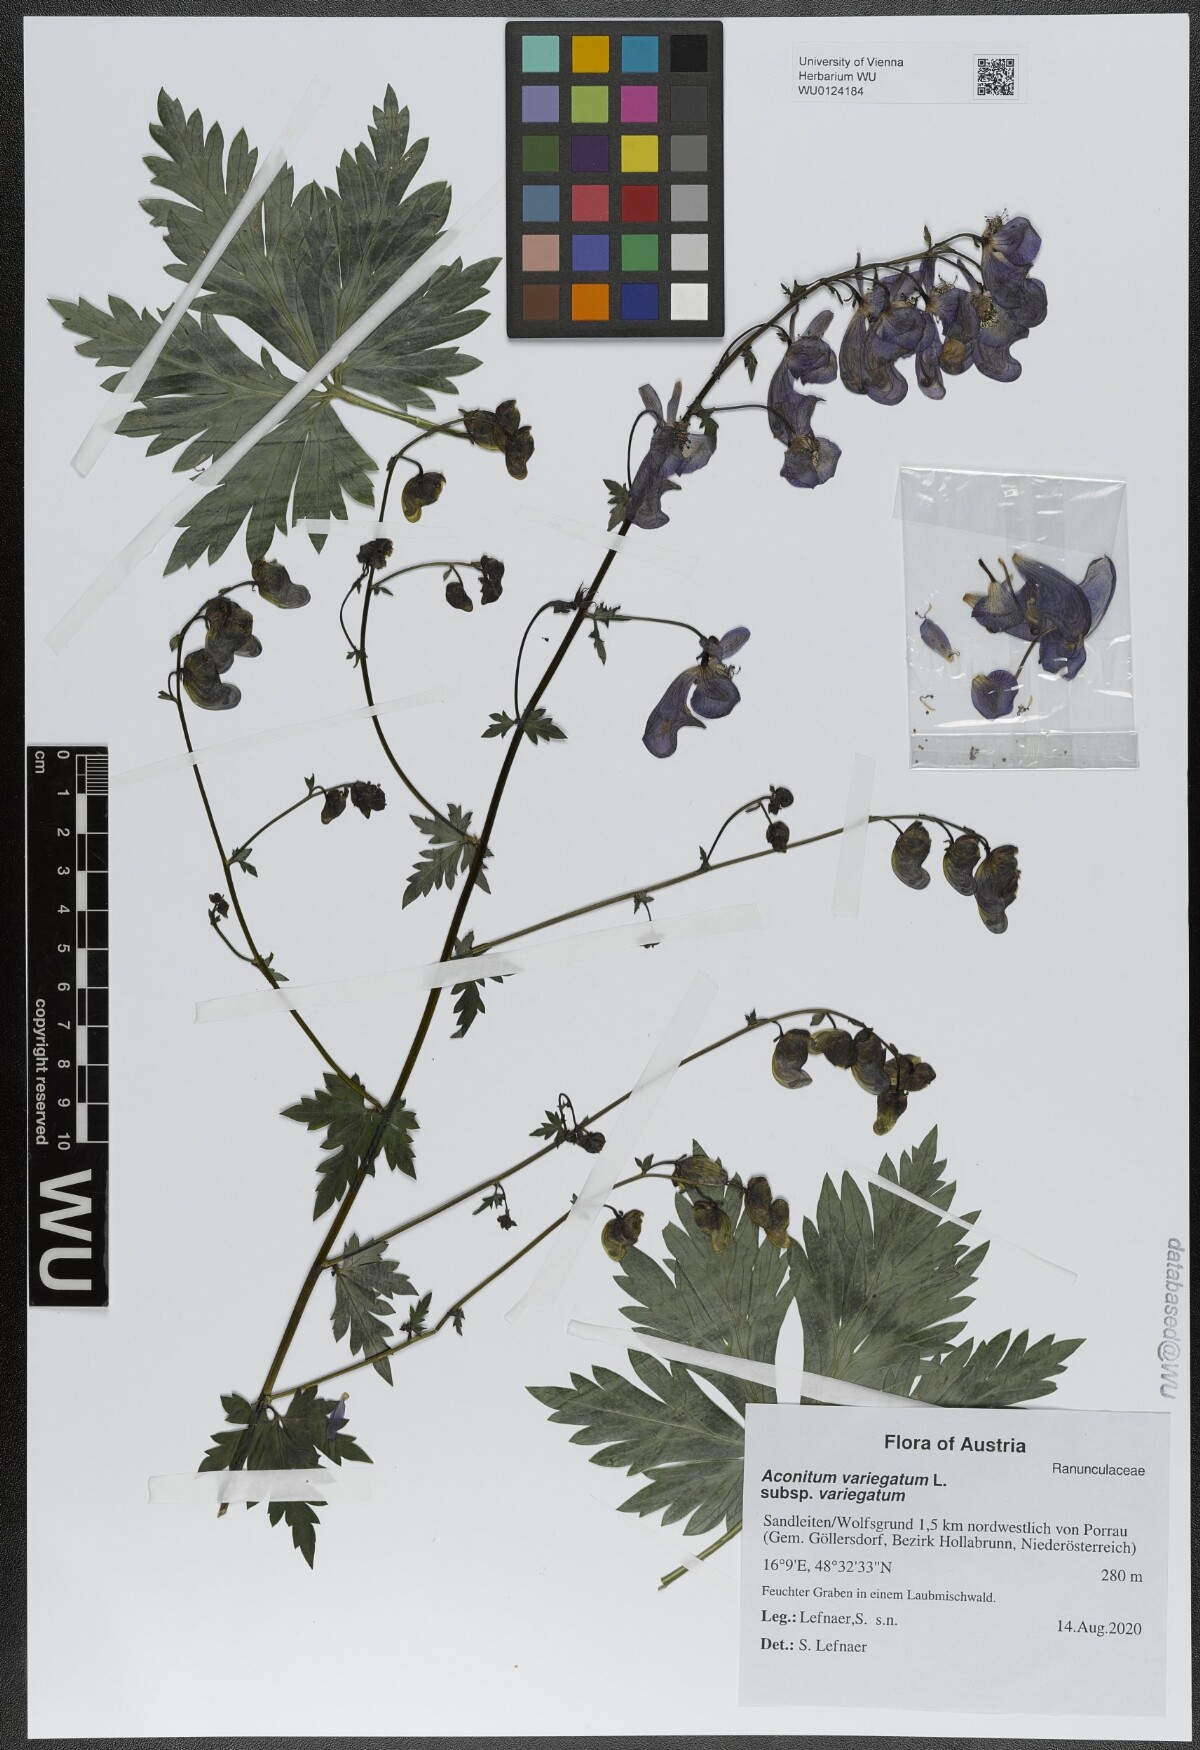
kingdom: Plantae
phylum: Tracheophyta
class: Magnoliopsida
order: Ranunculales
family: Ranunculaceae
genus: Aconitum
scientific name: Aconitum variegatum
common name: Manchurian monkshood
